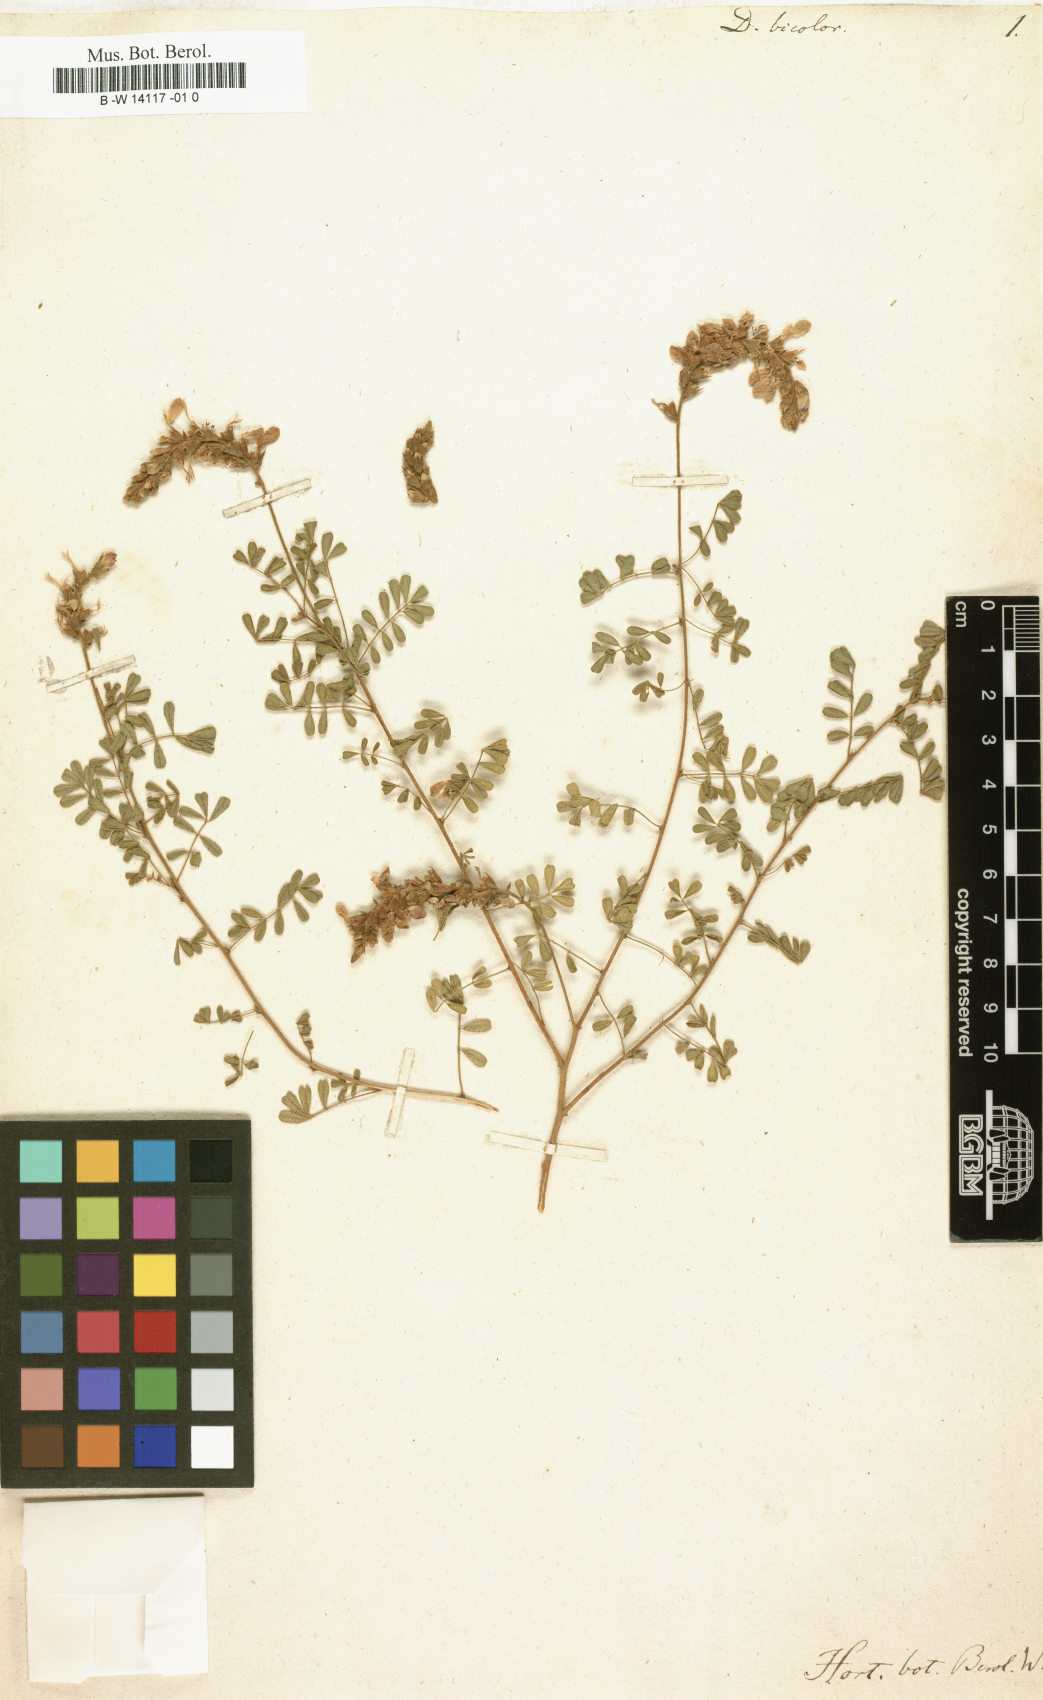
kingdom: Plantae
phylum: Tracheophyta
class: Magnoliopsida
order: Fabales
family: Fabaceae
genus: Dalea
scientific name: Dalea bicolor
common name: Silver prairie-clover
